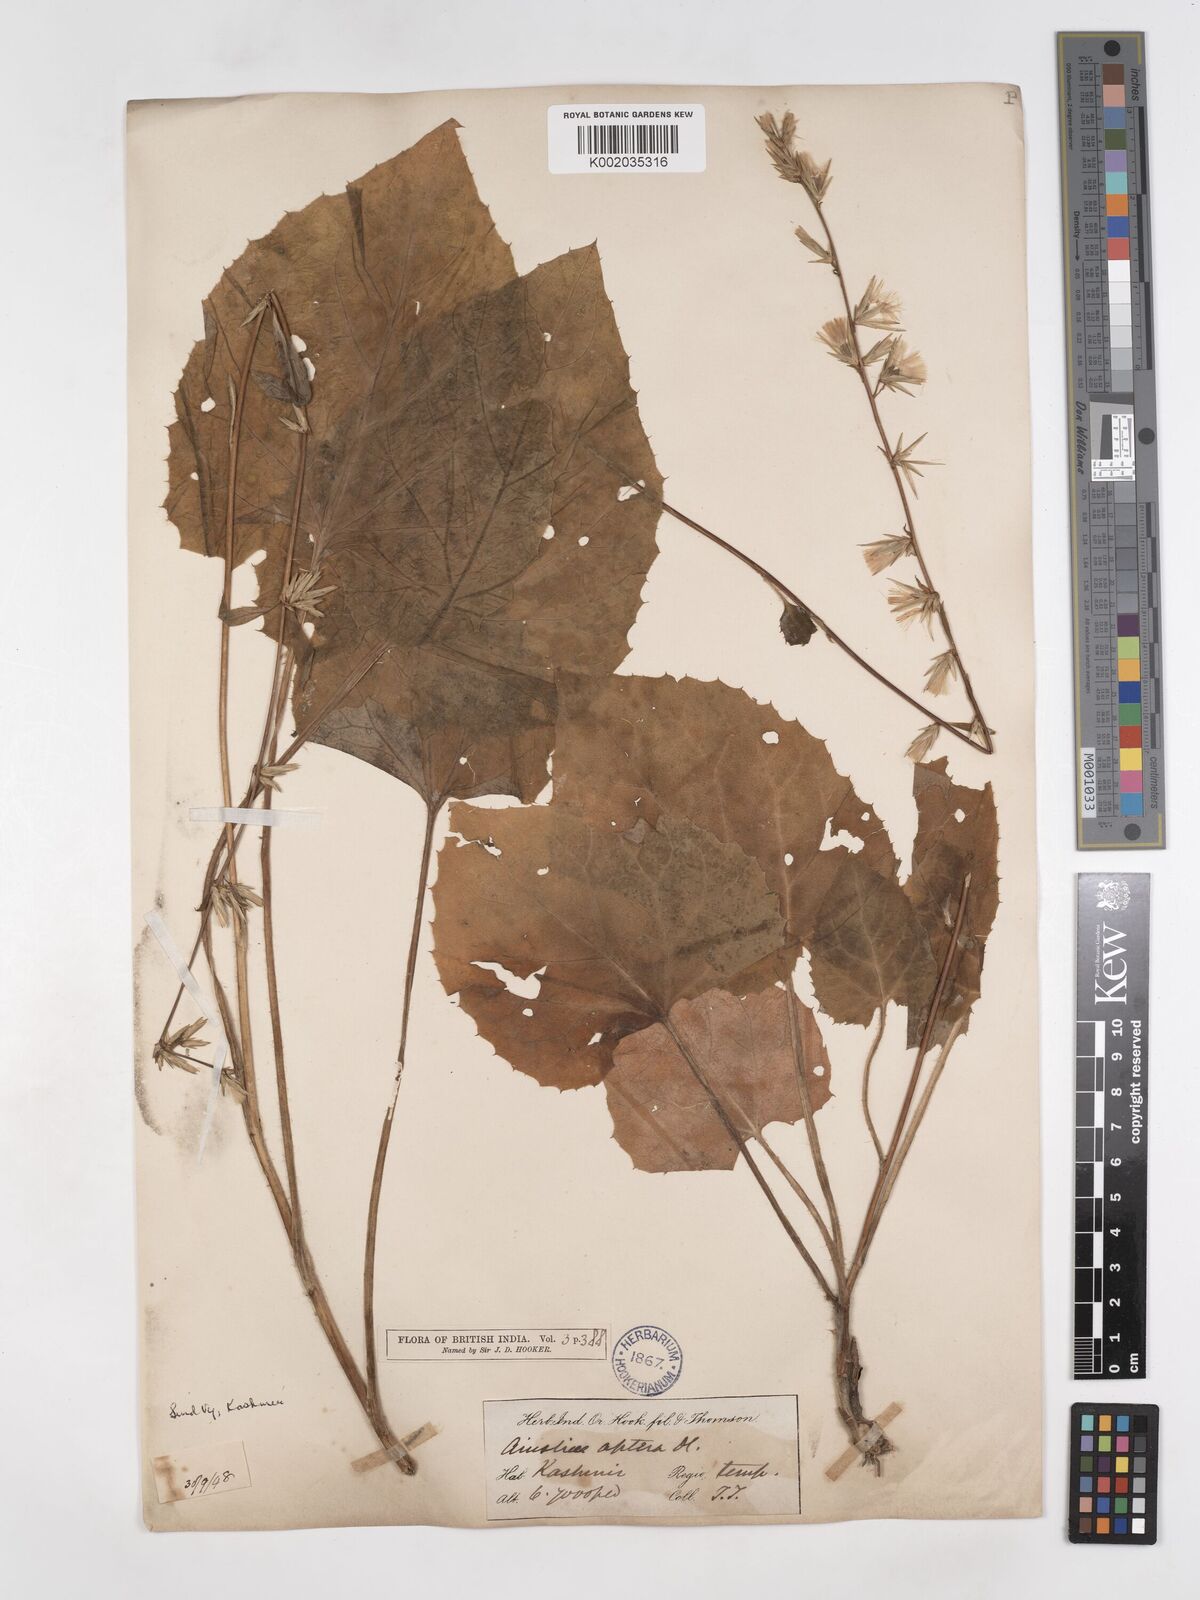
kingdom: Plantae
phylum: Tracheophyta
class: Magnoliopsida
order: Asterales
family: Asteraceae
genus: Ainsliaea
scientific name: Ainsliaea aptera
